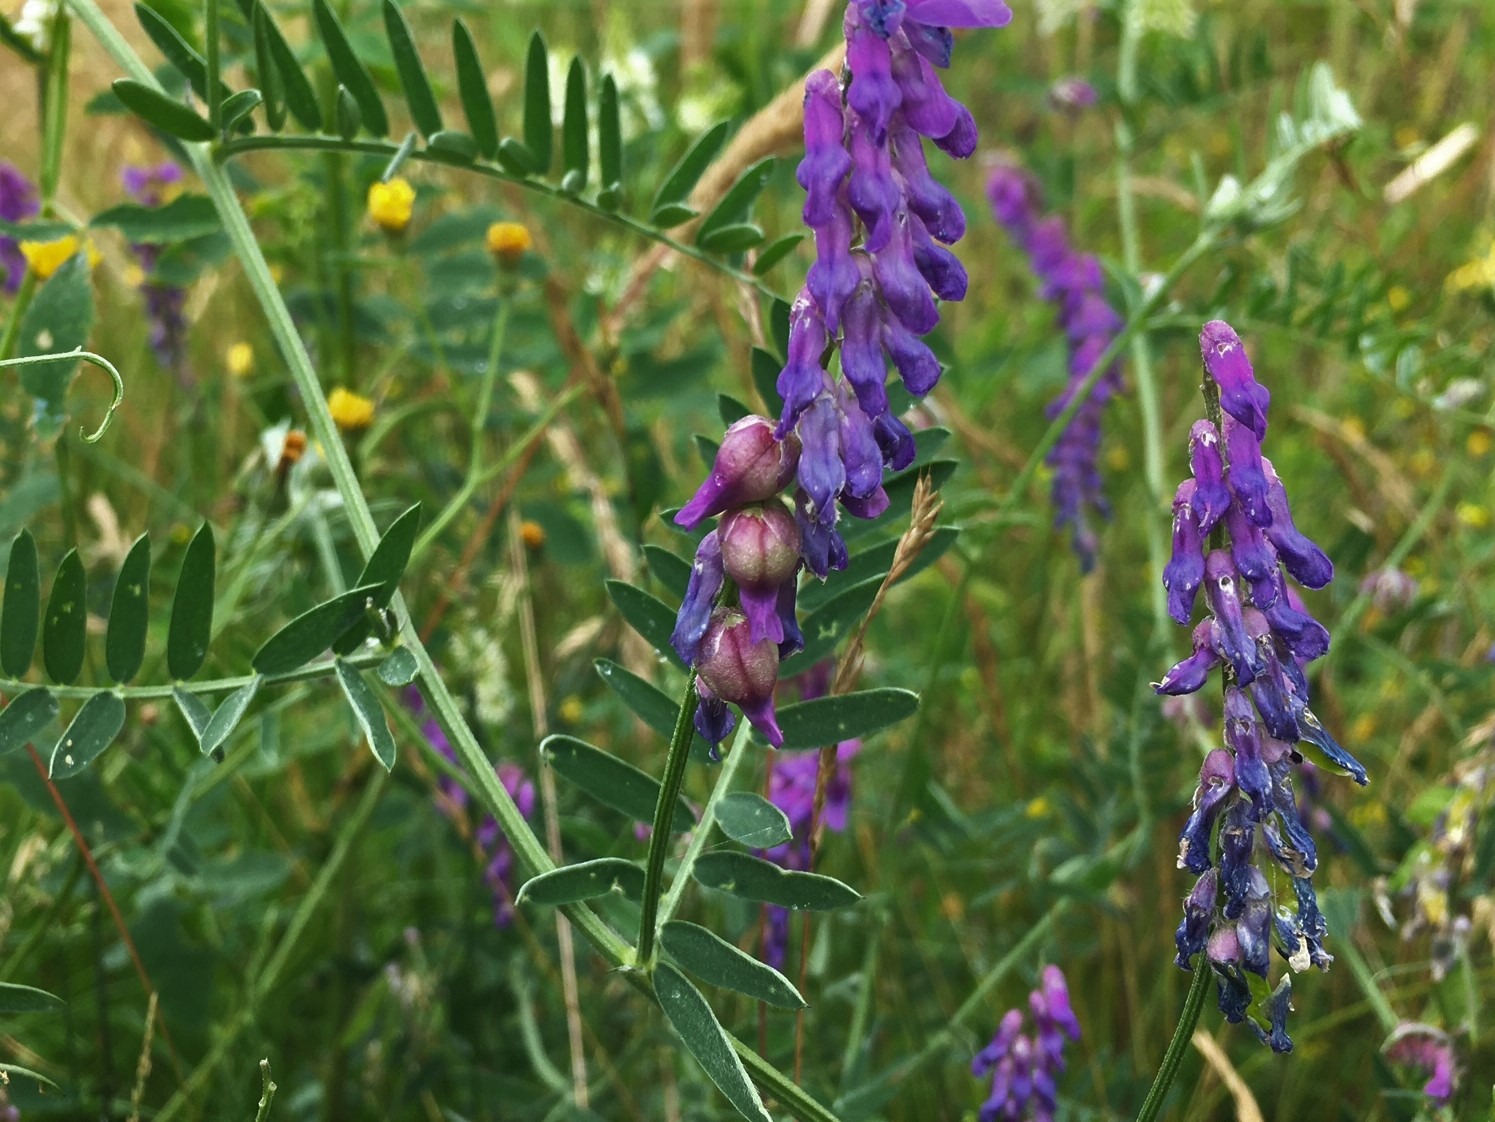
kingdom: Animalia
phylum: Arthropoda
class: Insecta
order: Diptera
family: Cecidomyiidae
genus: Contarinia
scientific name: Contarinia craccae
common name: Vikkeblomstgalmyg
